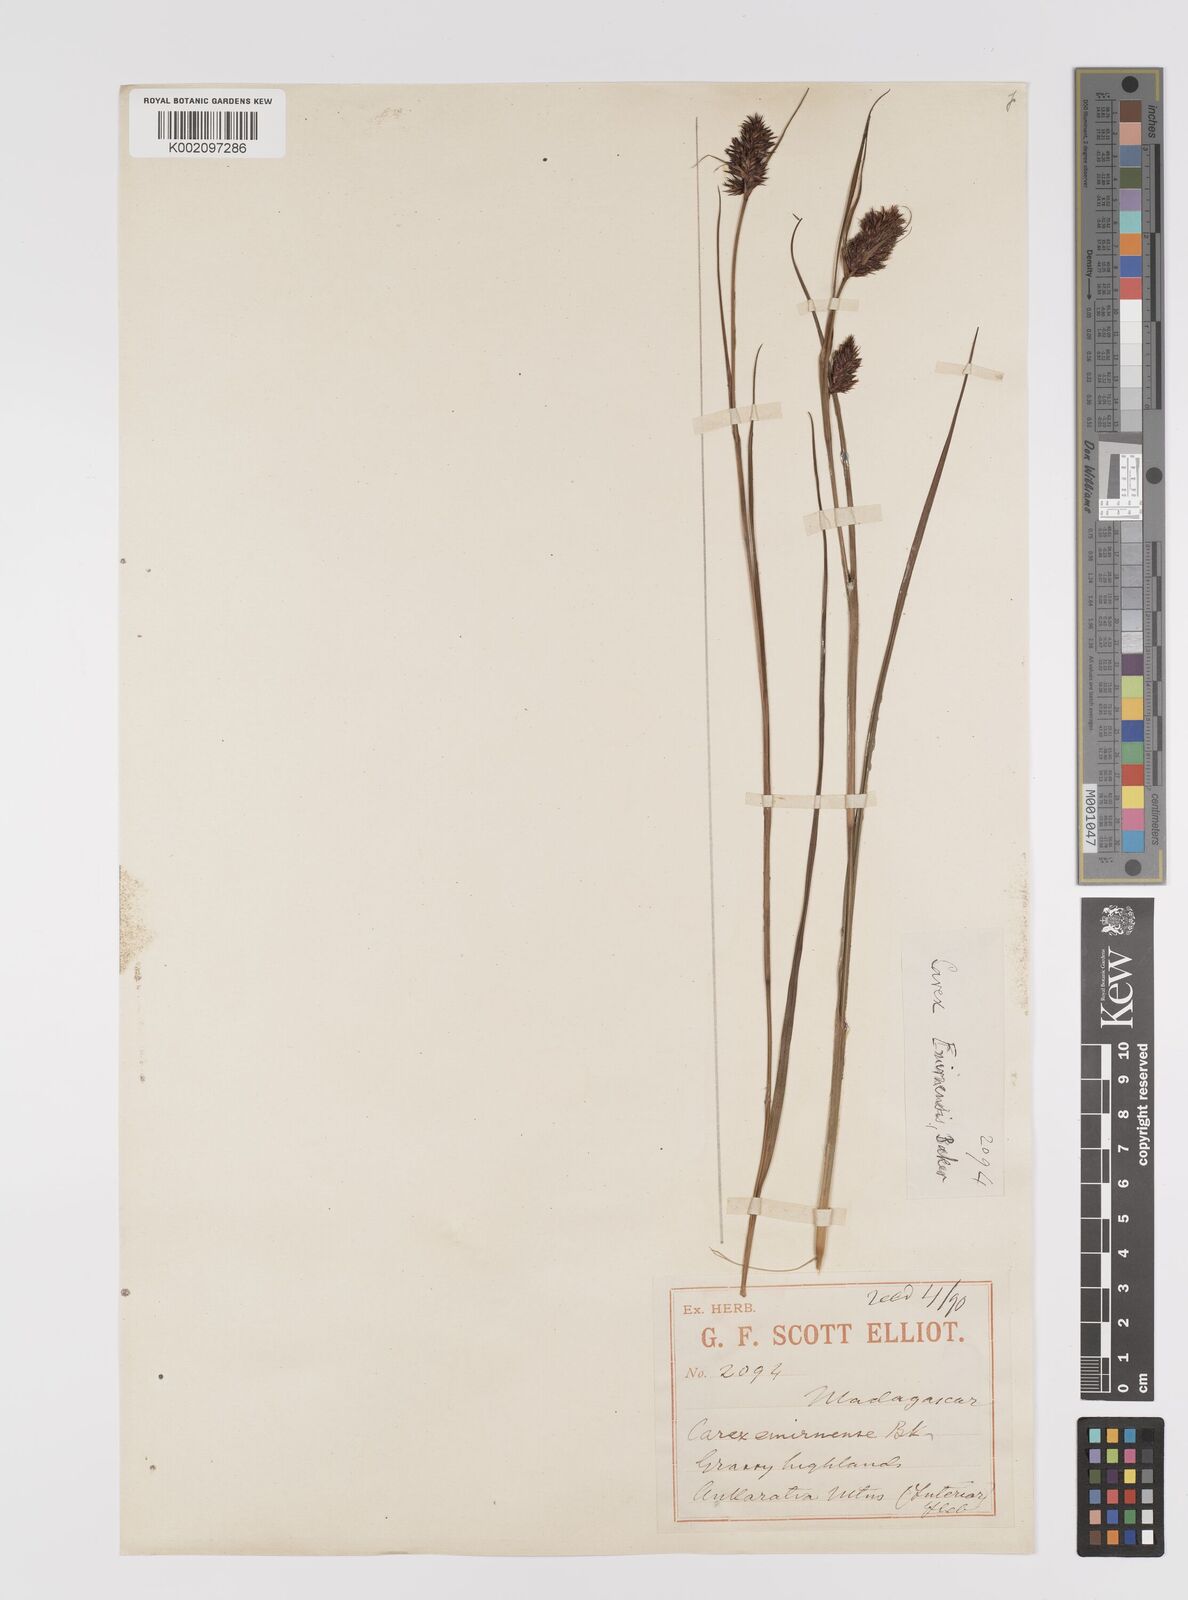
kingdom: Plantae
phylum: Tracheophyta
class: Liliopsida
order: Poales
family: Cyperaceae
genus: Carex
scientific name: Carex rutenbergiana
